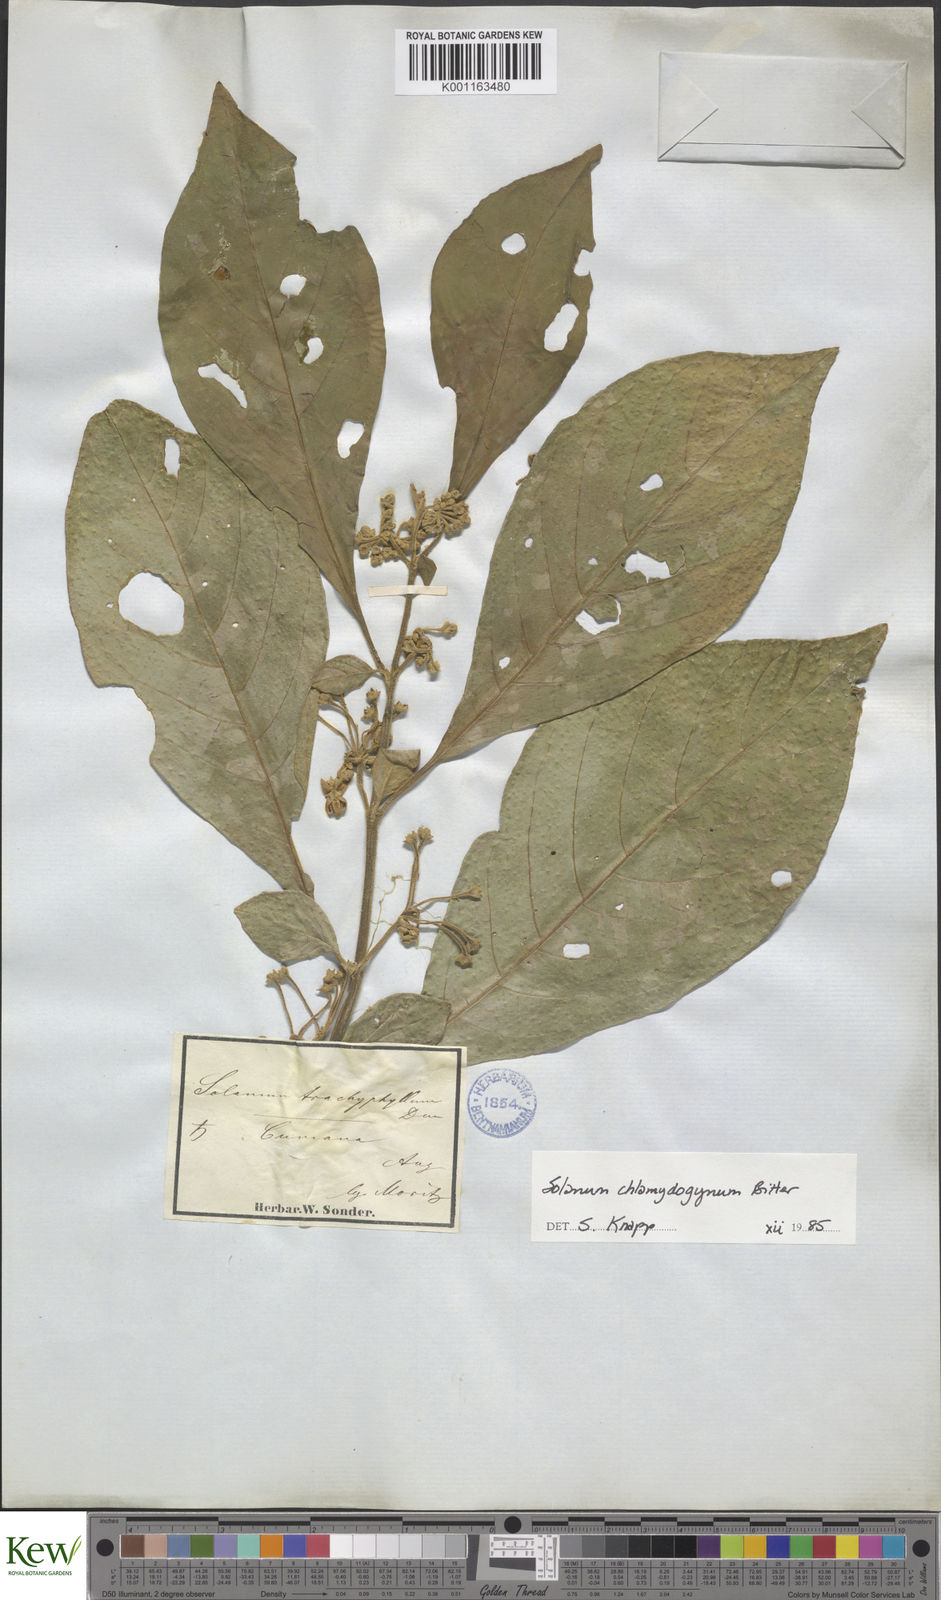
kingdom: Plantae
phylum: Tracheophyta
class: Magnoliopsida
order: Solanales
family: Solanaceae
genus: Solanum
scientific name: Solanum chlamydogynum
